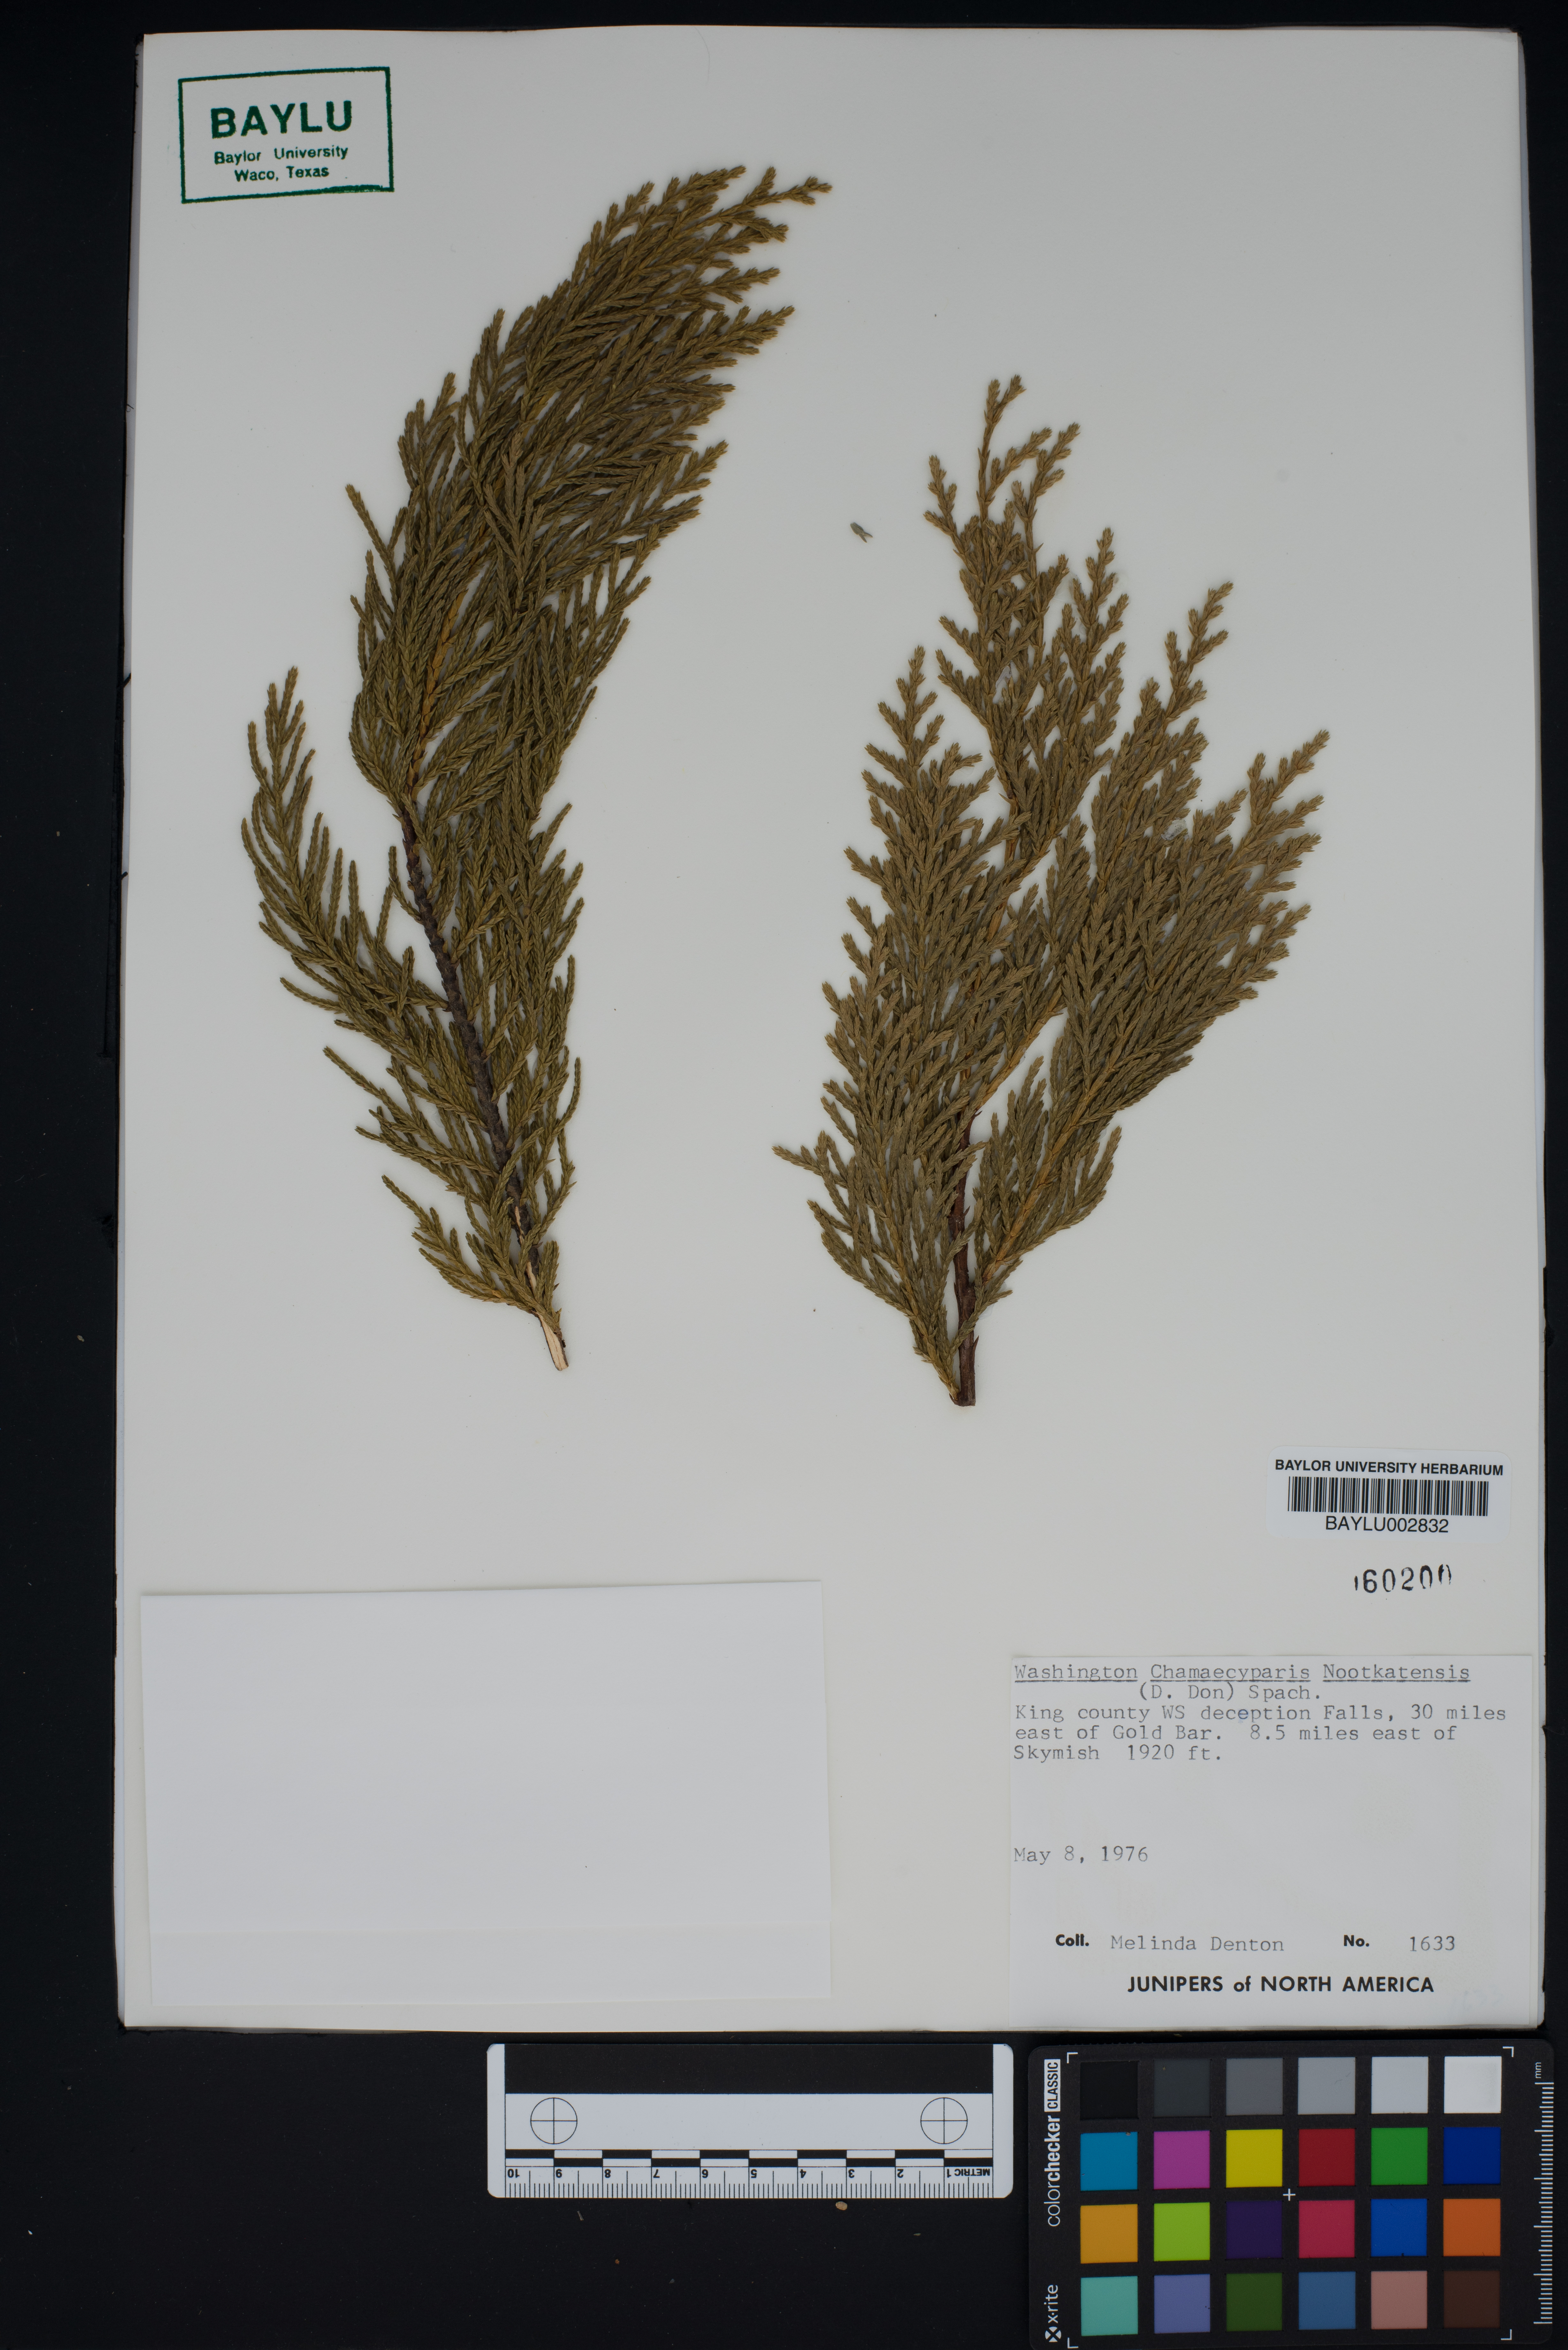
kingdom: Plantae
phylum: Tracheophyta
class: Pinopsida
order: Pinales
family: Cupressaceae
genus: Xanthocyparis
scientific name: Xanthocyparis nootkatensis
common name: Nootka cypress
